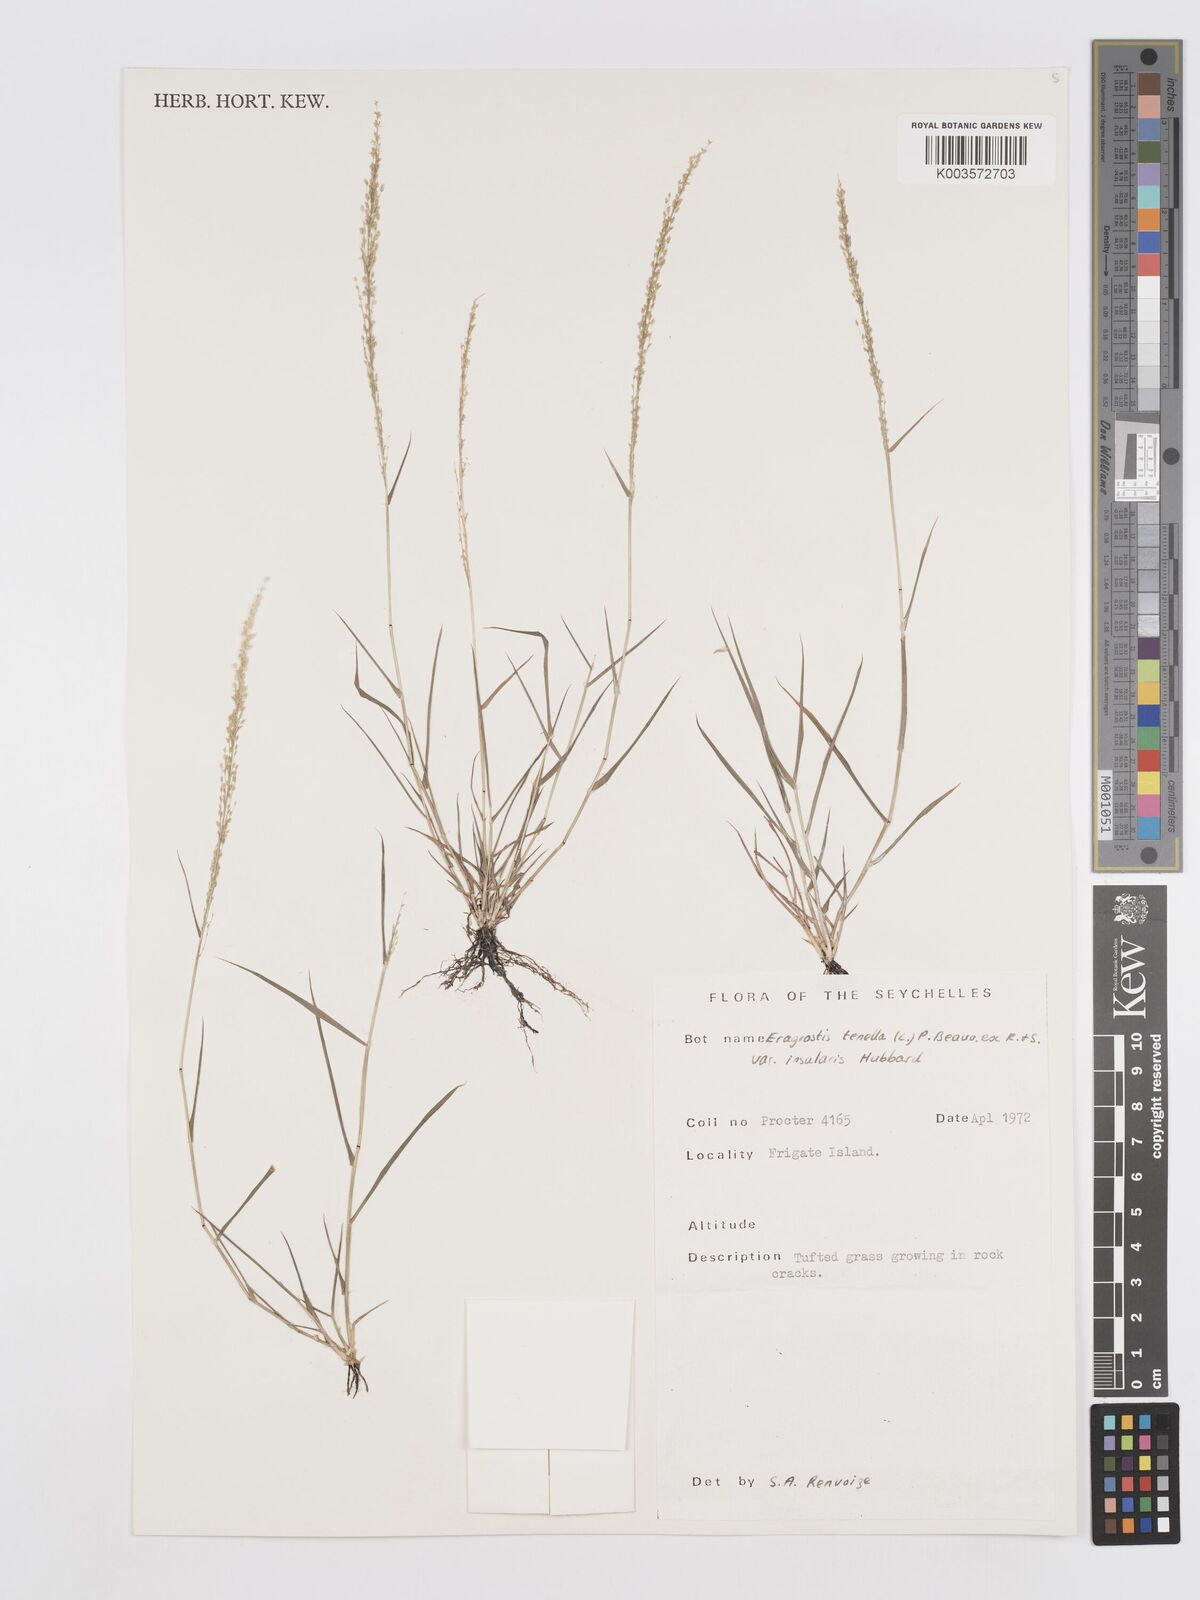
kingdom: Plantae
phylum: Tracheophyta
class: Liliopsida
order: Poales
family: Poaceae
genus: Eragrostis
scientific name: Eragrostis tenella
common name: Japanese lovegrass
